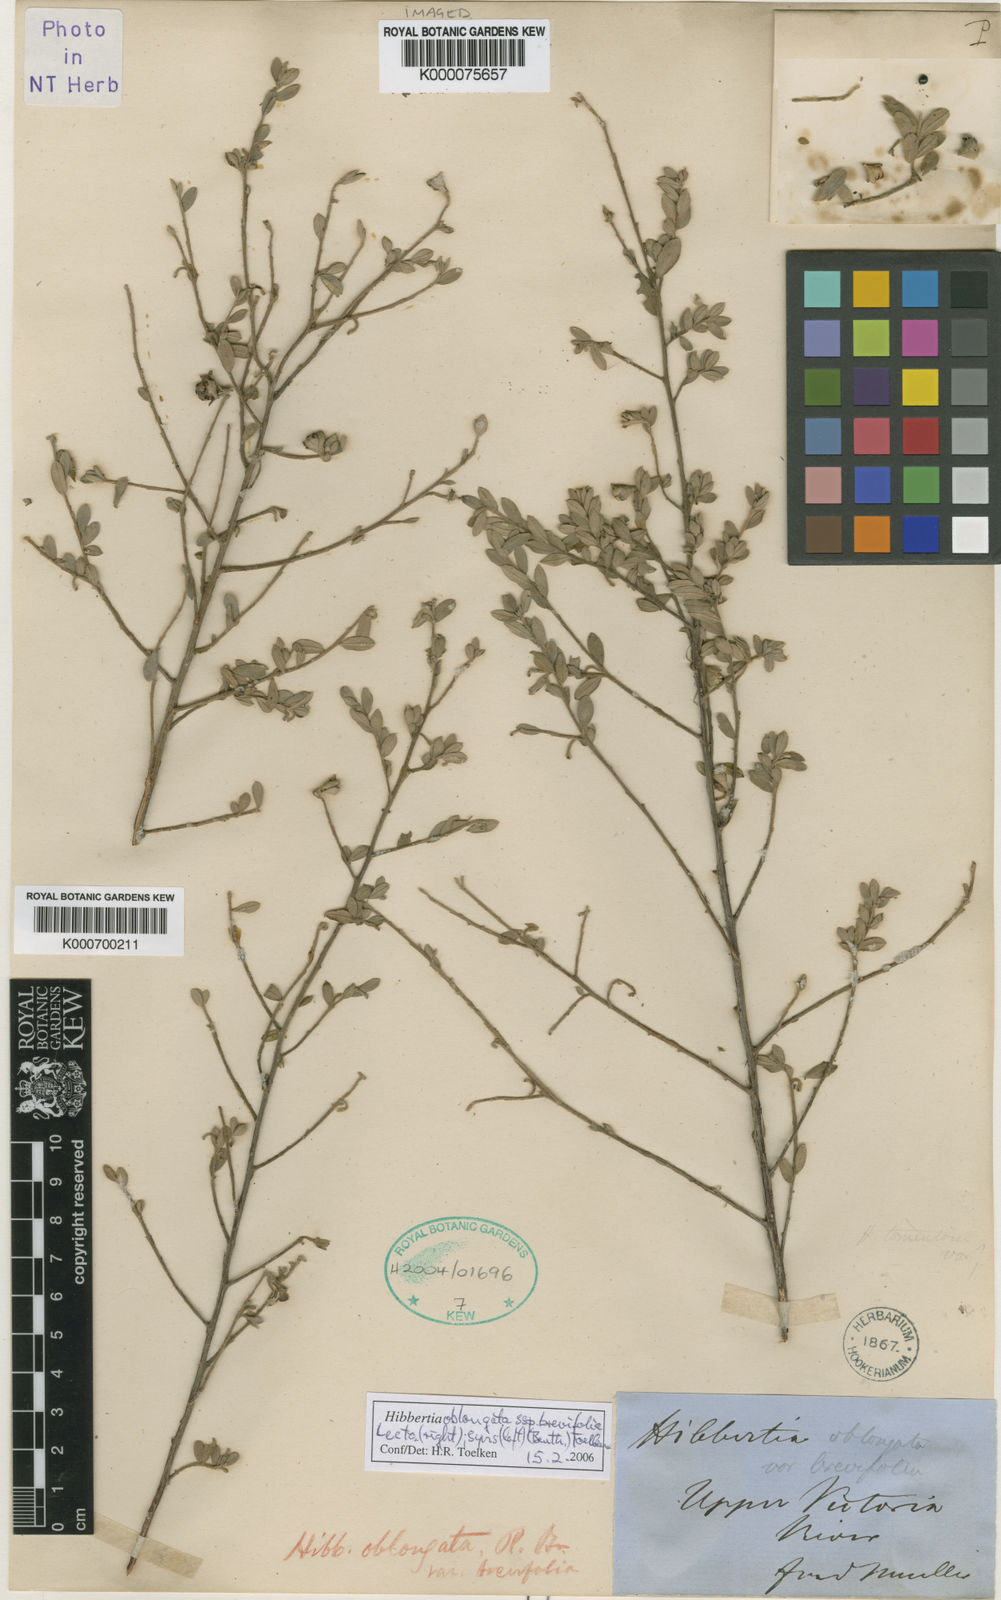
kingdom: Plantae
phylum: Tracheophyta
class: Magnoliopsida
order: Dilleniales
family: Dilleniaceae
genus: Hibbertia
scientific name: Hibbertia oblongata
